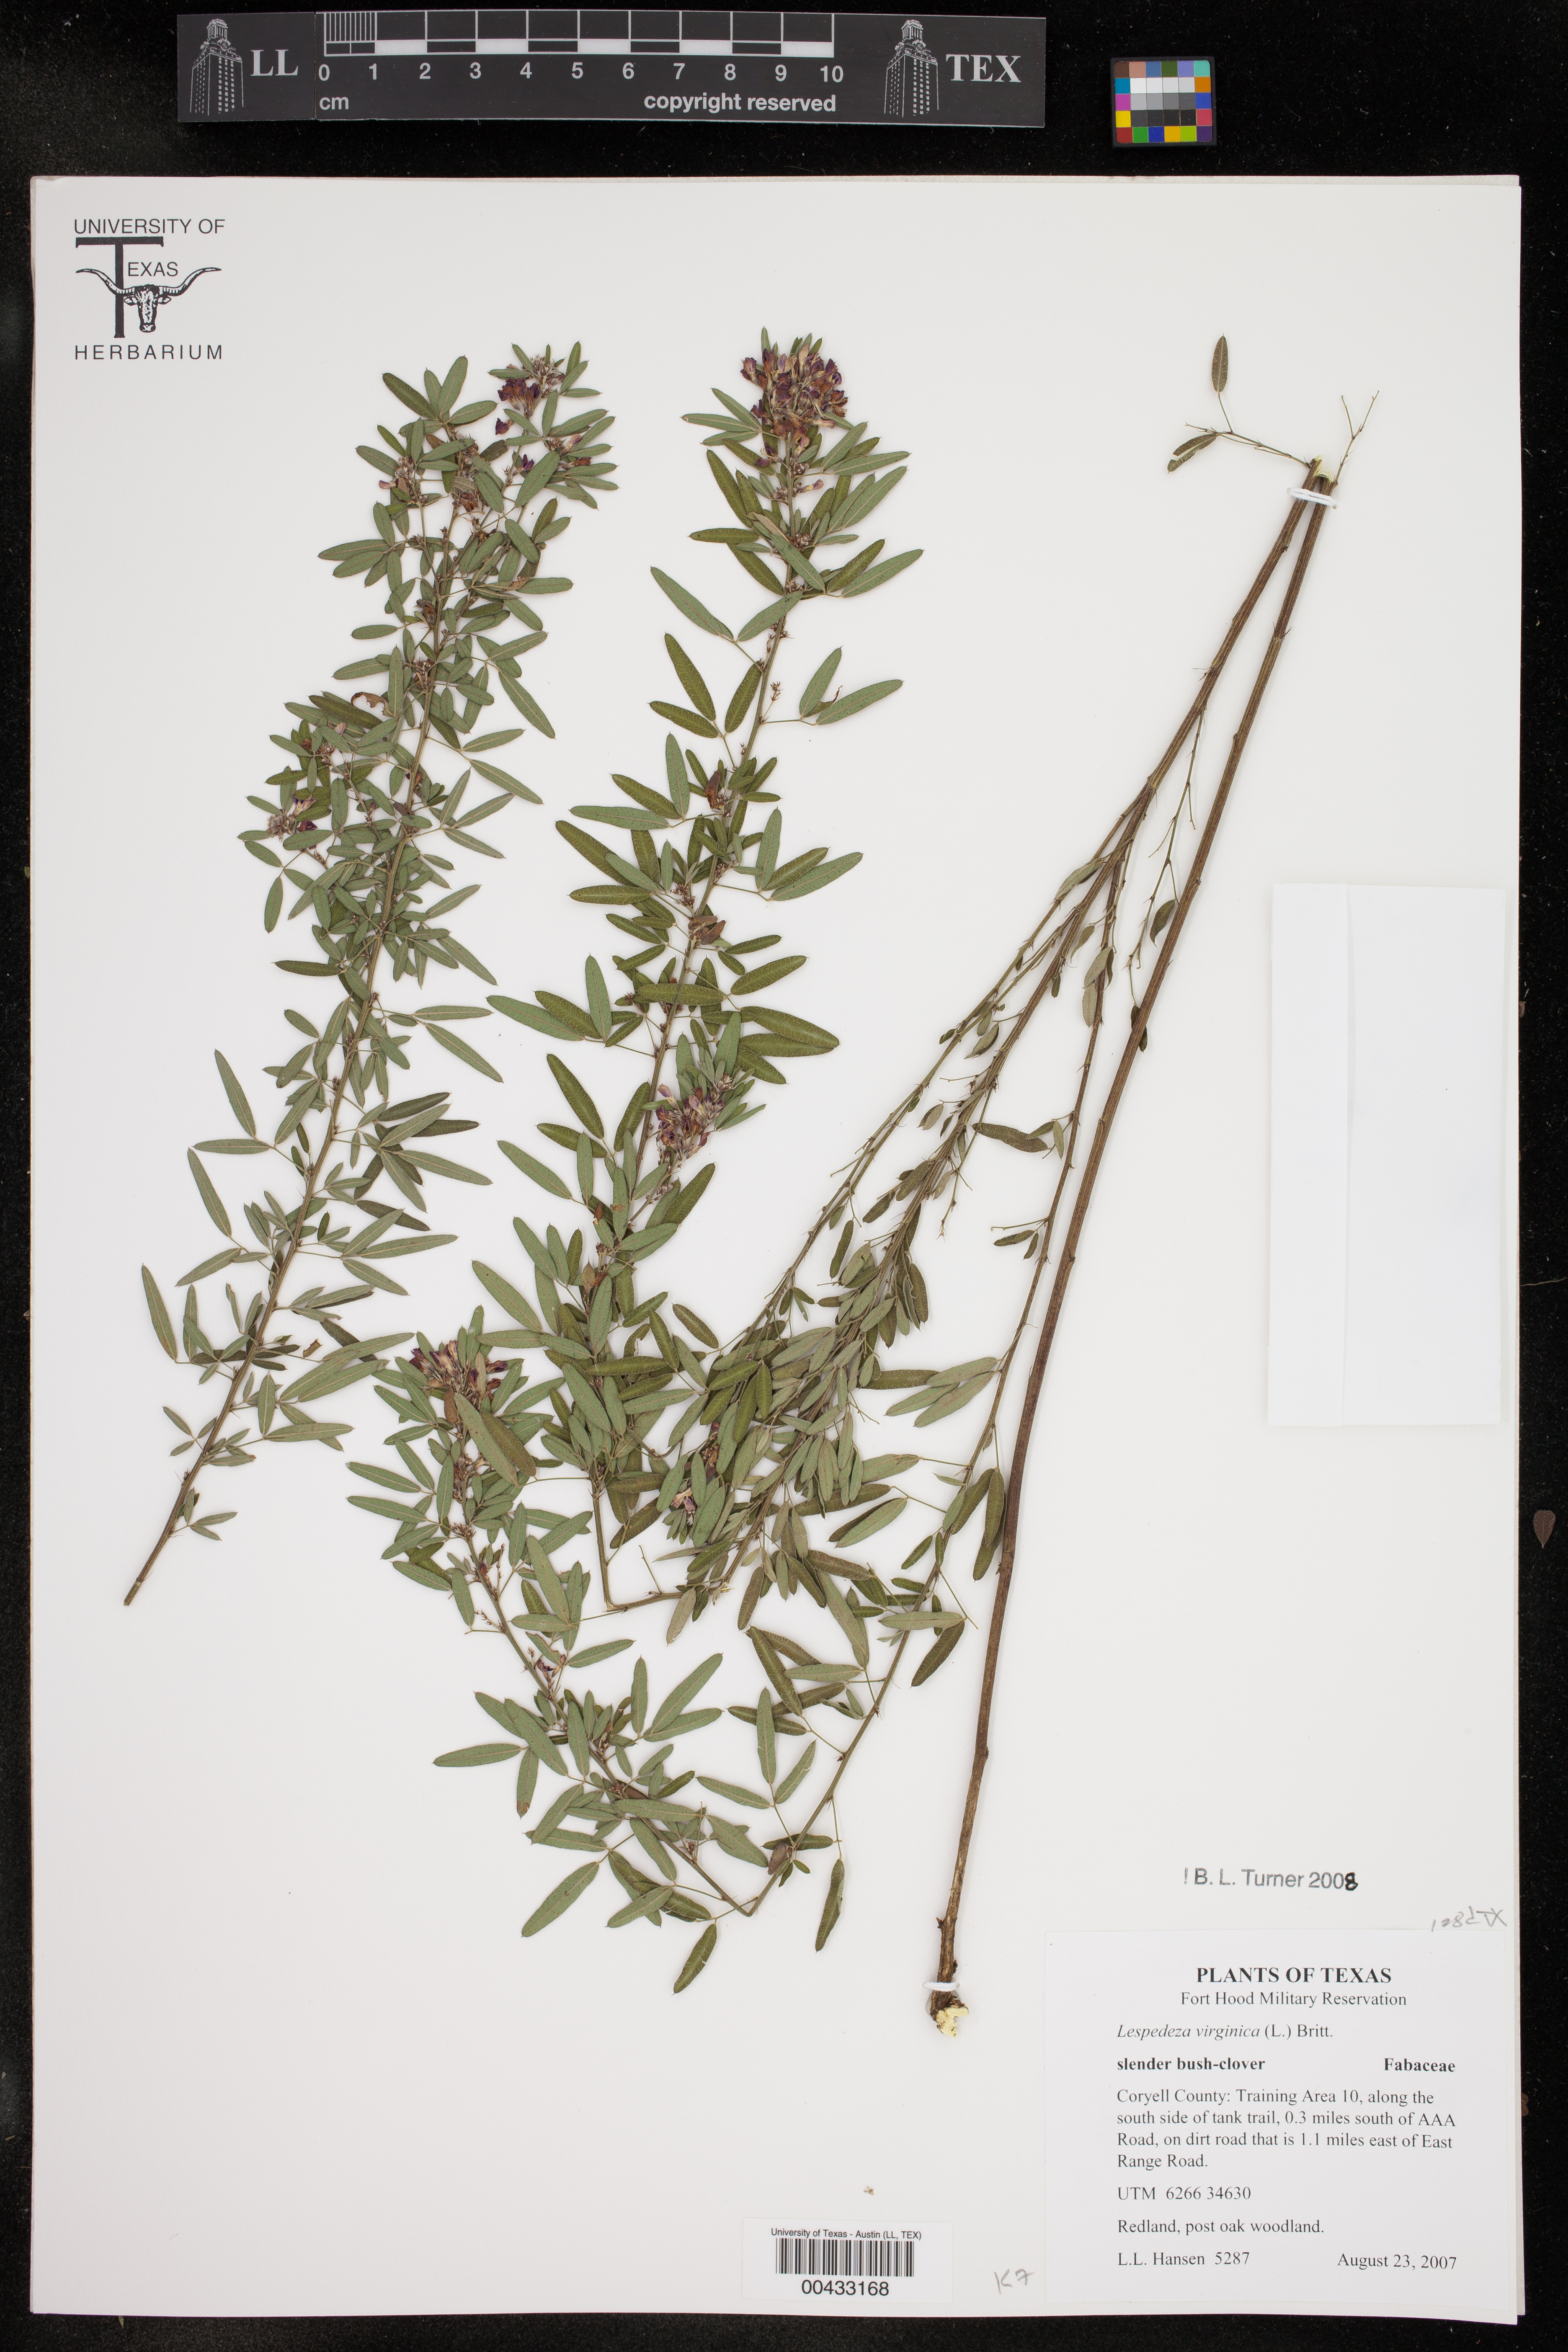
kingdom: Plantae
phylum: Tracheophyta
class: Magnoliopsida
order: Fabales
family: Fabaceae
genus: Lespedeza
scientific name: Lespedeza virginica
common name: Slender bush-clover
